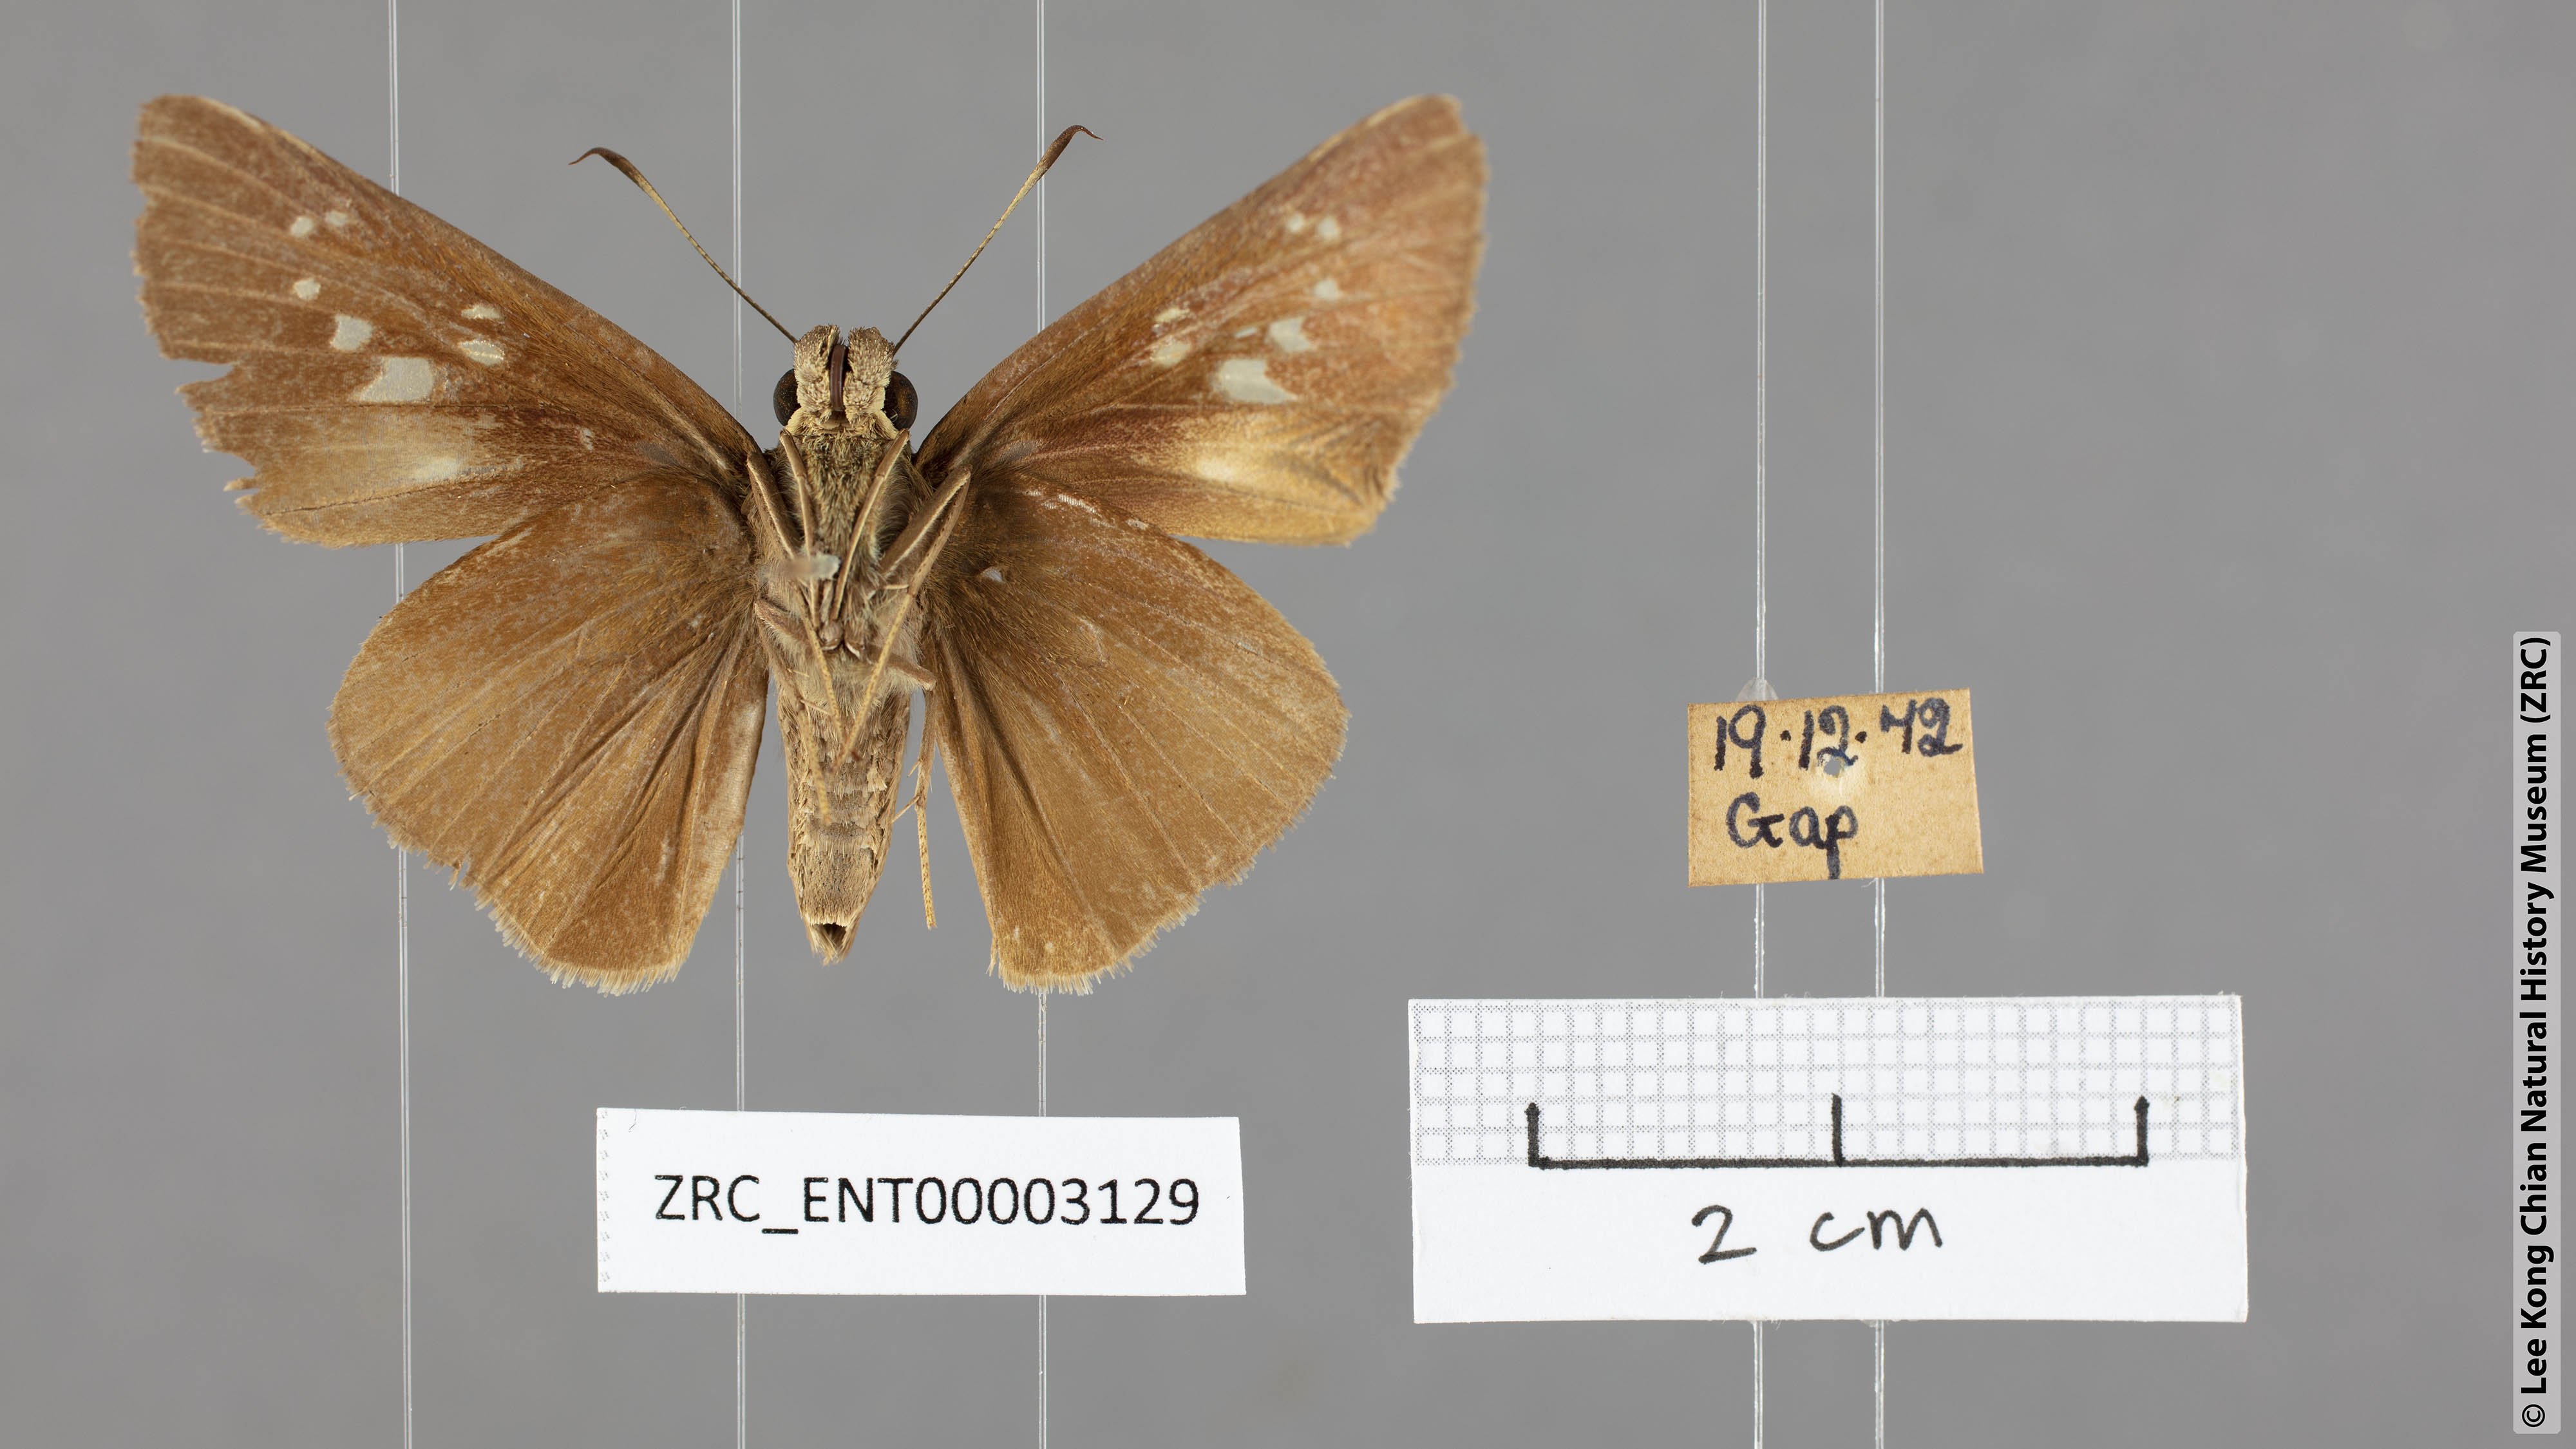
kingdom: Animalia
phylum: Arthropoda
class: Insecta
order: Lepidoptera
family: Hesperiidae
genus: Baoris
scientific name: Baoris farri
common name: Paintbrush swift
